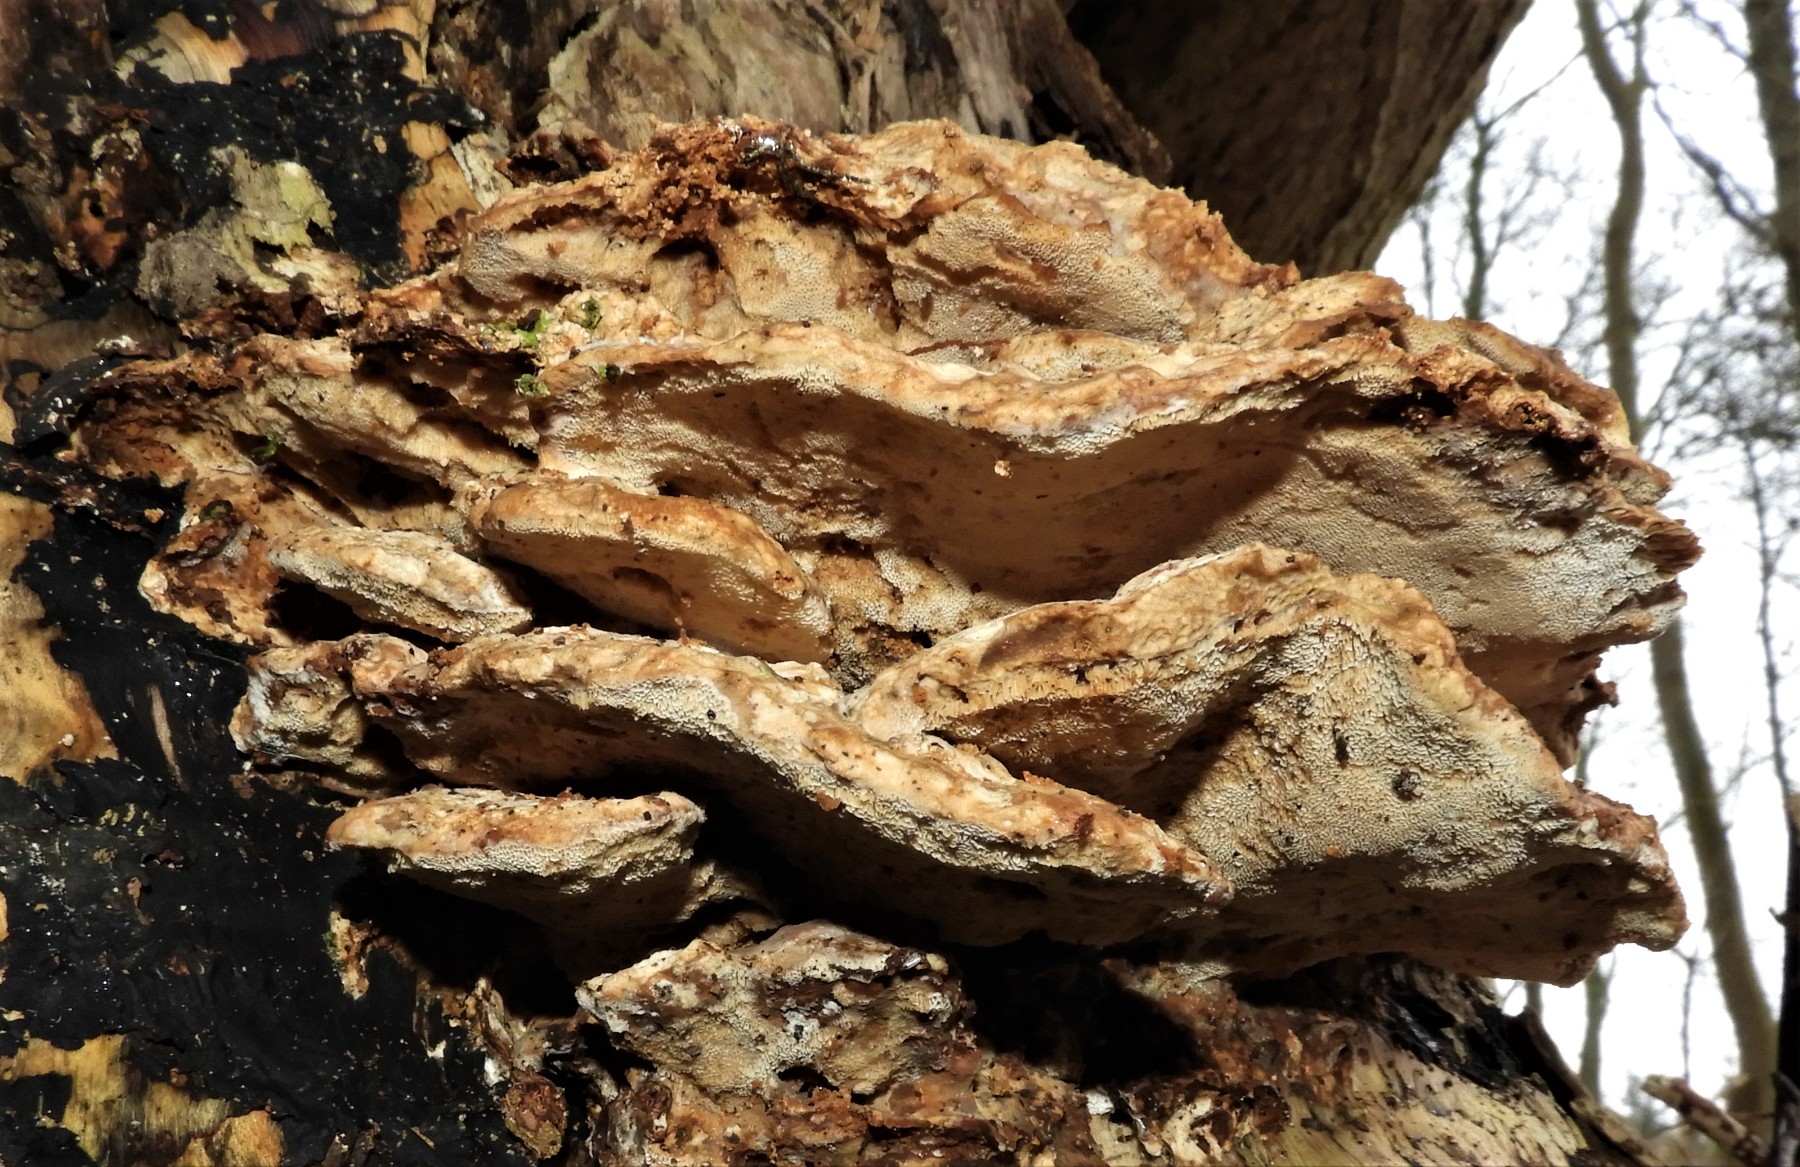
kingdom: Fungi
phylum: Basidiomycota
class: Agaricomycetes
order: Polyporales
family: Phanerochaetaceae
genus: Bjerkandera
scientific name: Bjerkandera fumosa
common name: grågul sodporesvamp
